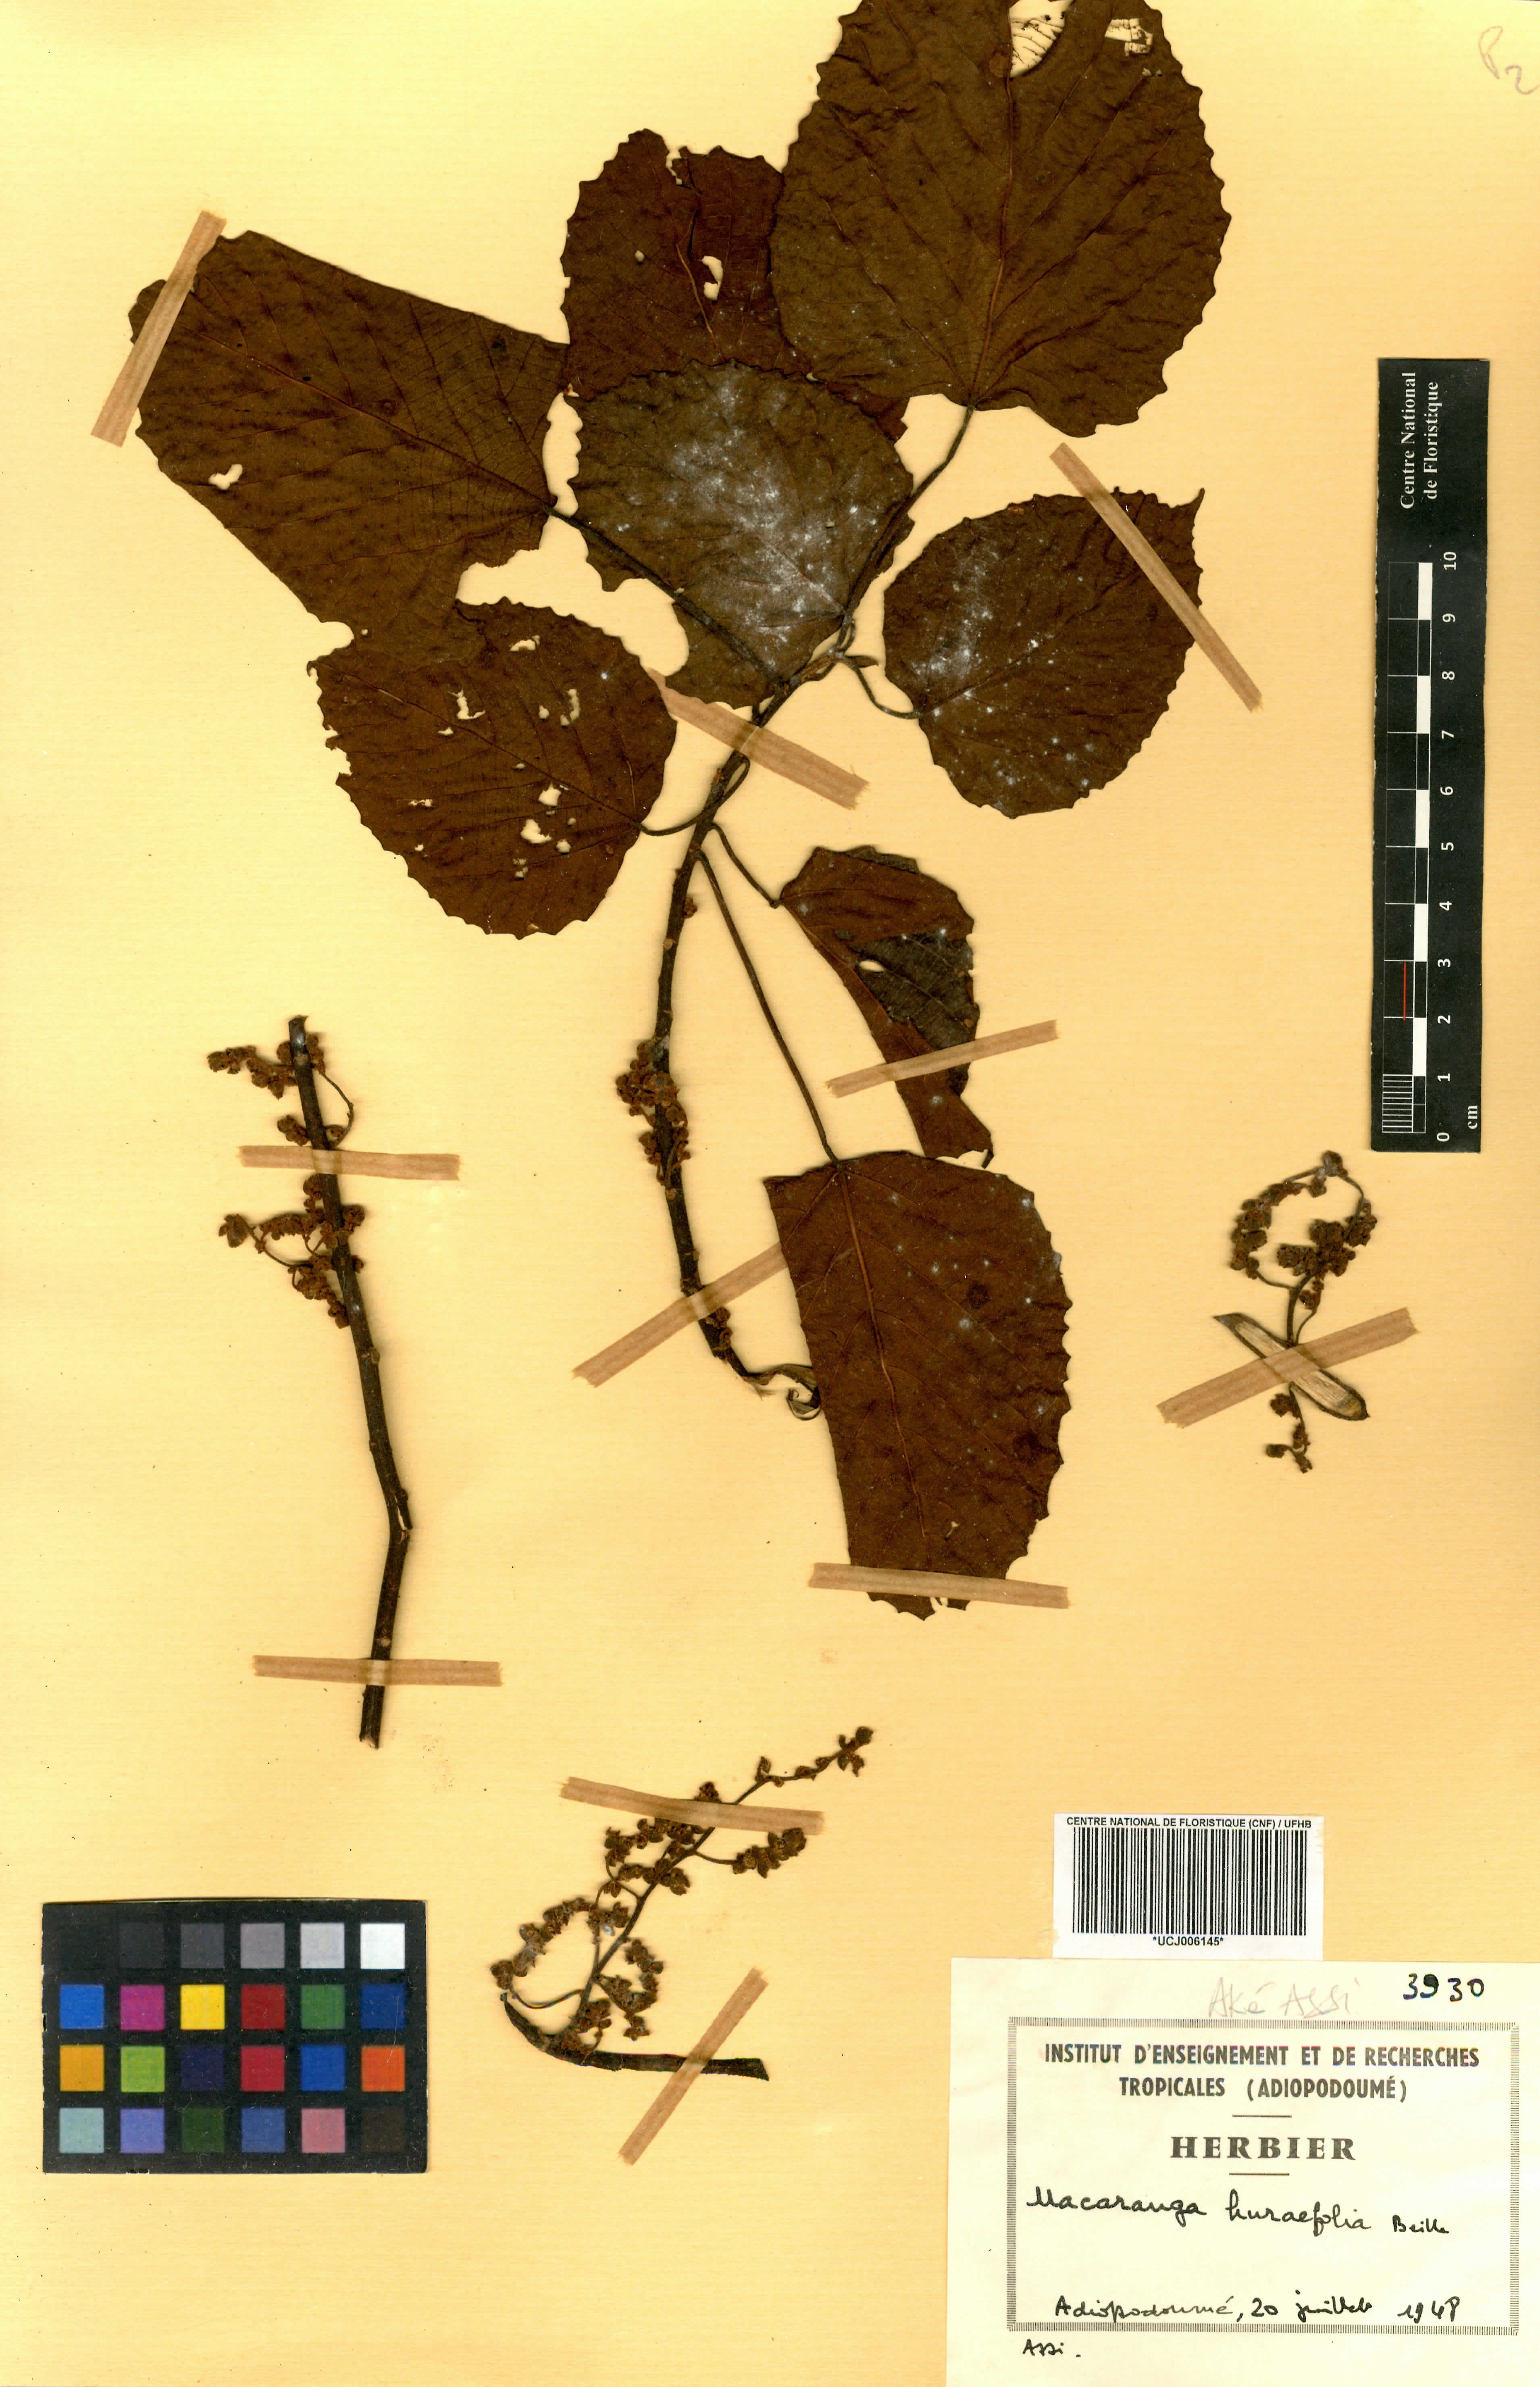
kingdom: Plantae
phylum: Tracheophyta
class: Magnoliopsida
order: Malpighiales
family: Euphorbiaceae
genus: Macaranga
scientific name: Macaranga hurifolia
